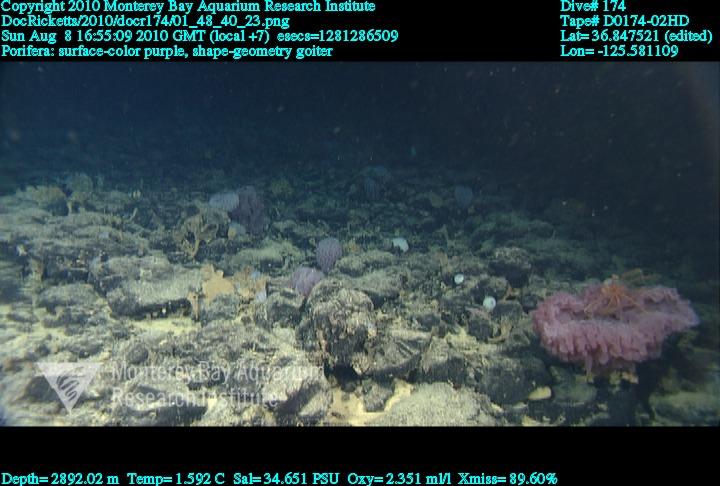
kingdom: Animalia
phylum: Porifera
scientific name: Porifera
